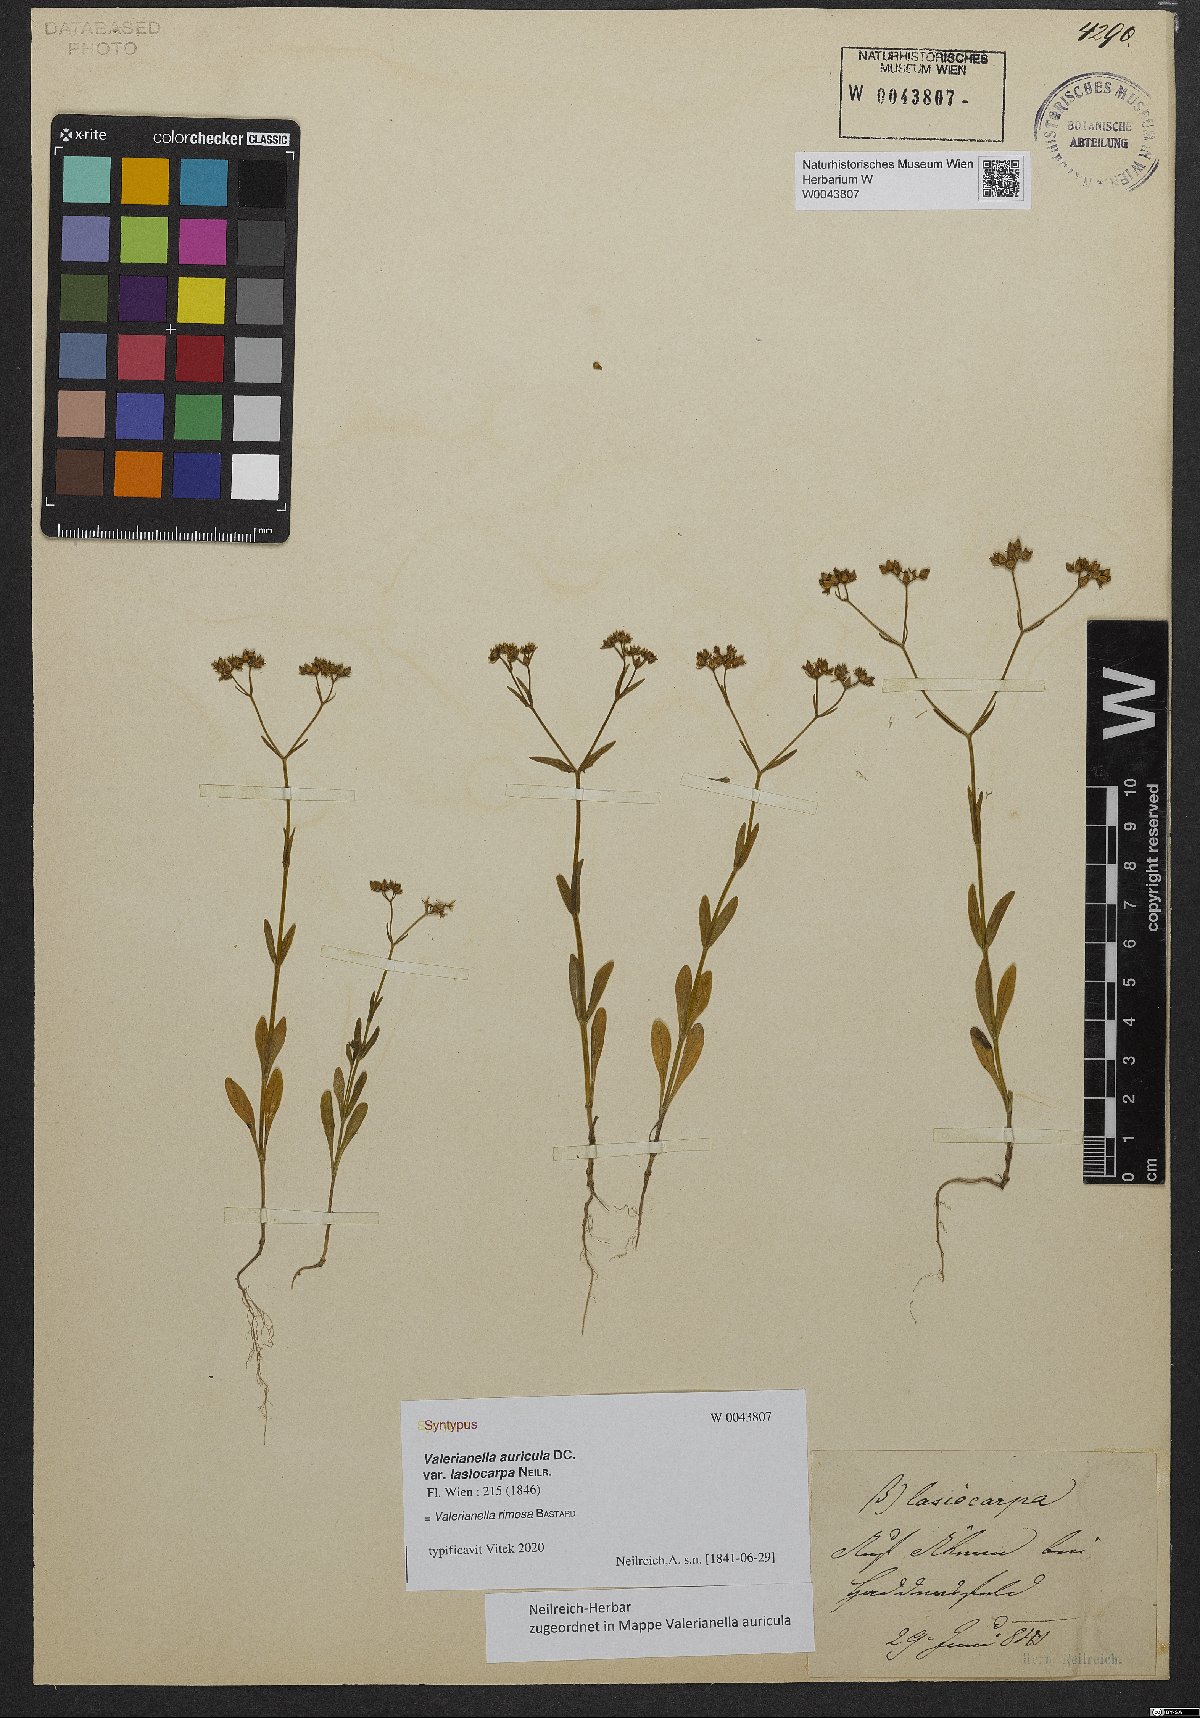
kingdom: Plantae
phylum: Tracheophyta
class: Magnoliopsida
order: Dipsacales
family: Caprifoliaceae
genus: Valerianella
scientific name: Valerianella rimosa
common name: Broad-fruited cornsalad
